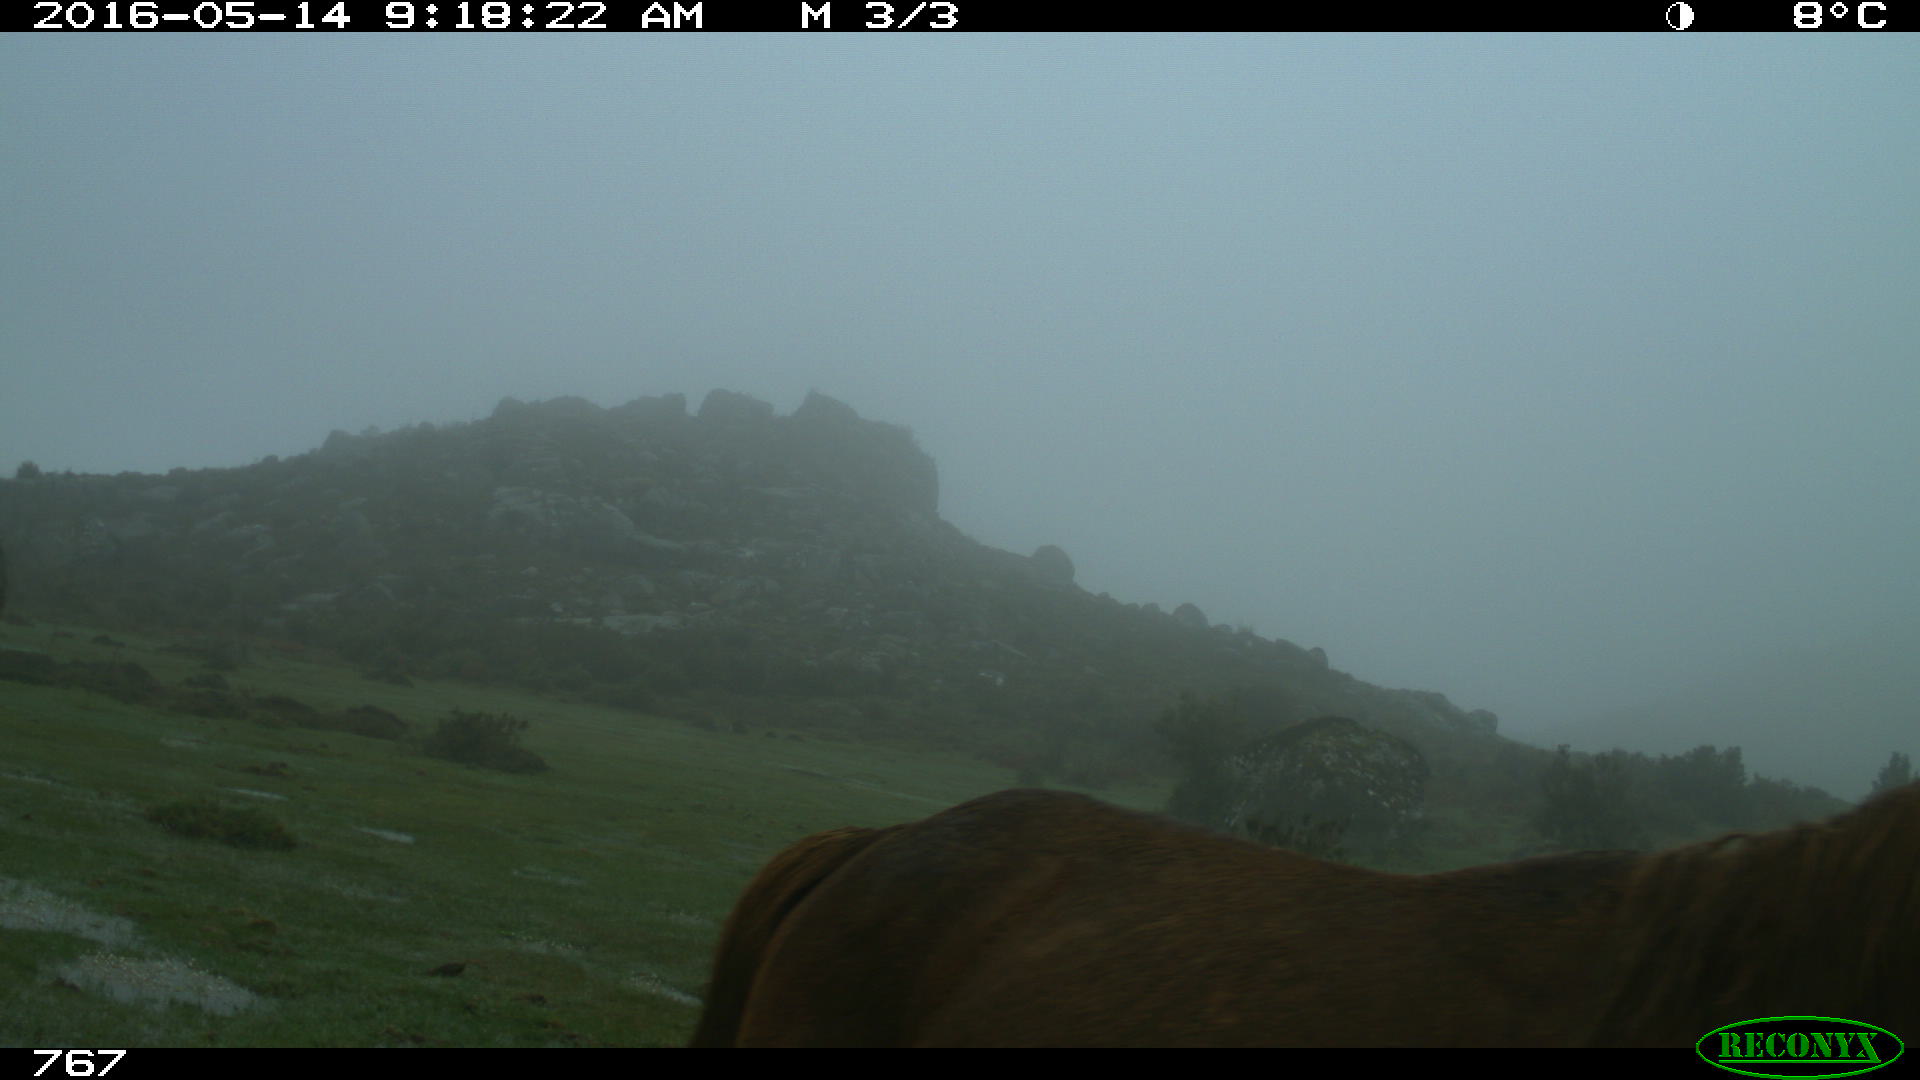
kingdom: Animalia
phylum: Chordata
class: Mammalia
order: Perissodactyla
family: Equidae
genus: Equus
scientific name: Equus caballus
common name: Horse
